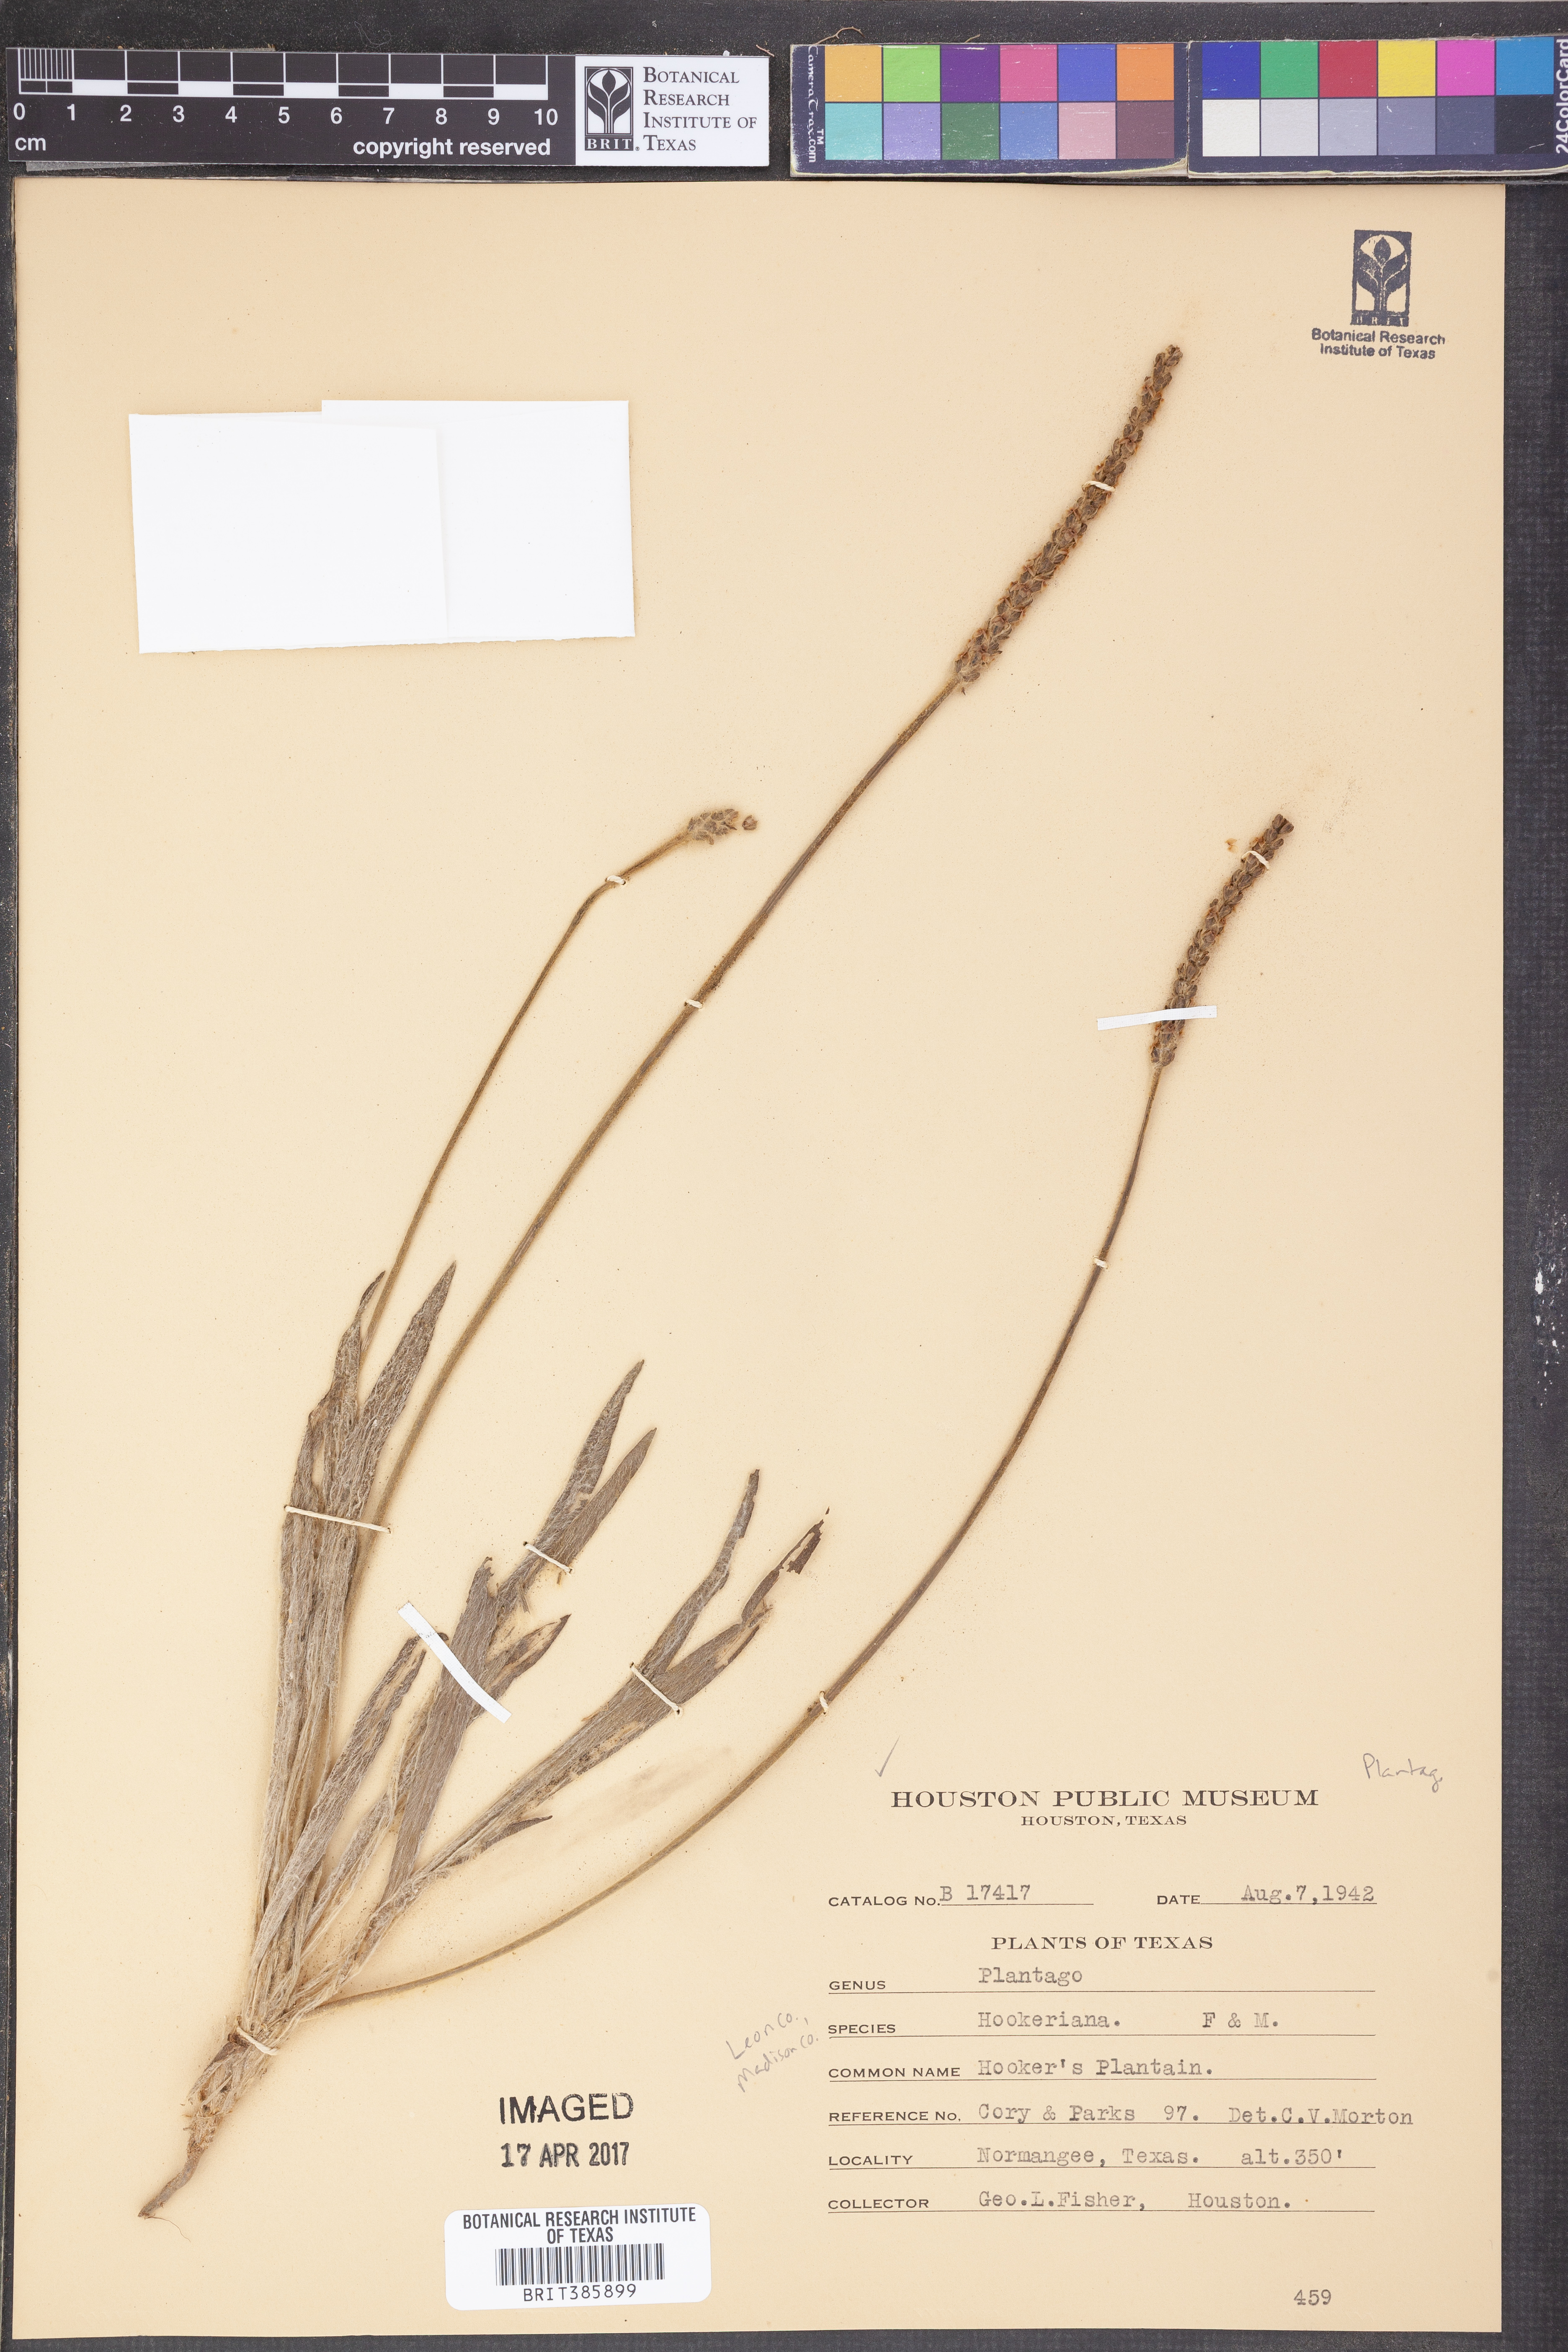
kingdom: Plantae
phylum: Tracheophyta
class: Magnoliopsida
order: Lamiales
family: Plantaginaceae
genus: Plantago
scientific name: Plantago hookeriana
